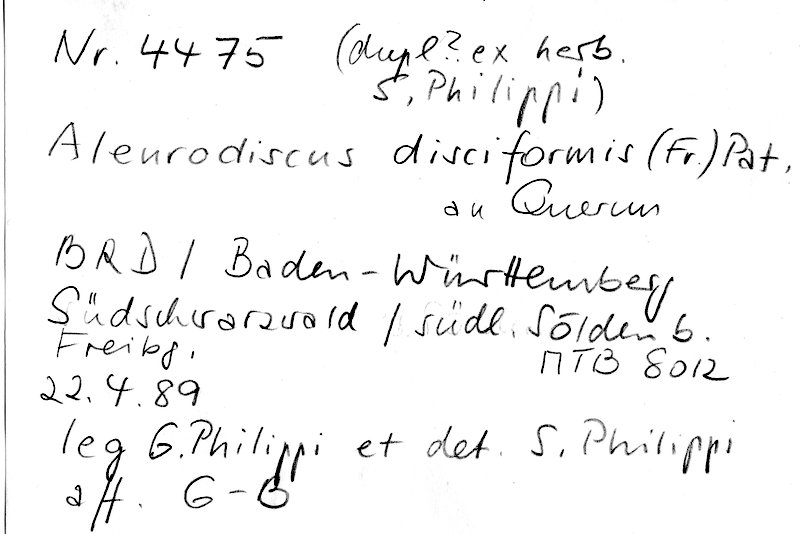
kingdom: Fungi
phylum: Basidiomycota
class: Agaricomycetes
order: Russulales
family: Stereaceae
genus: Aleurodiscus
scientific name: Aleurodiscus disciformis
